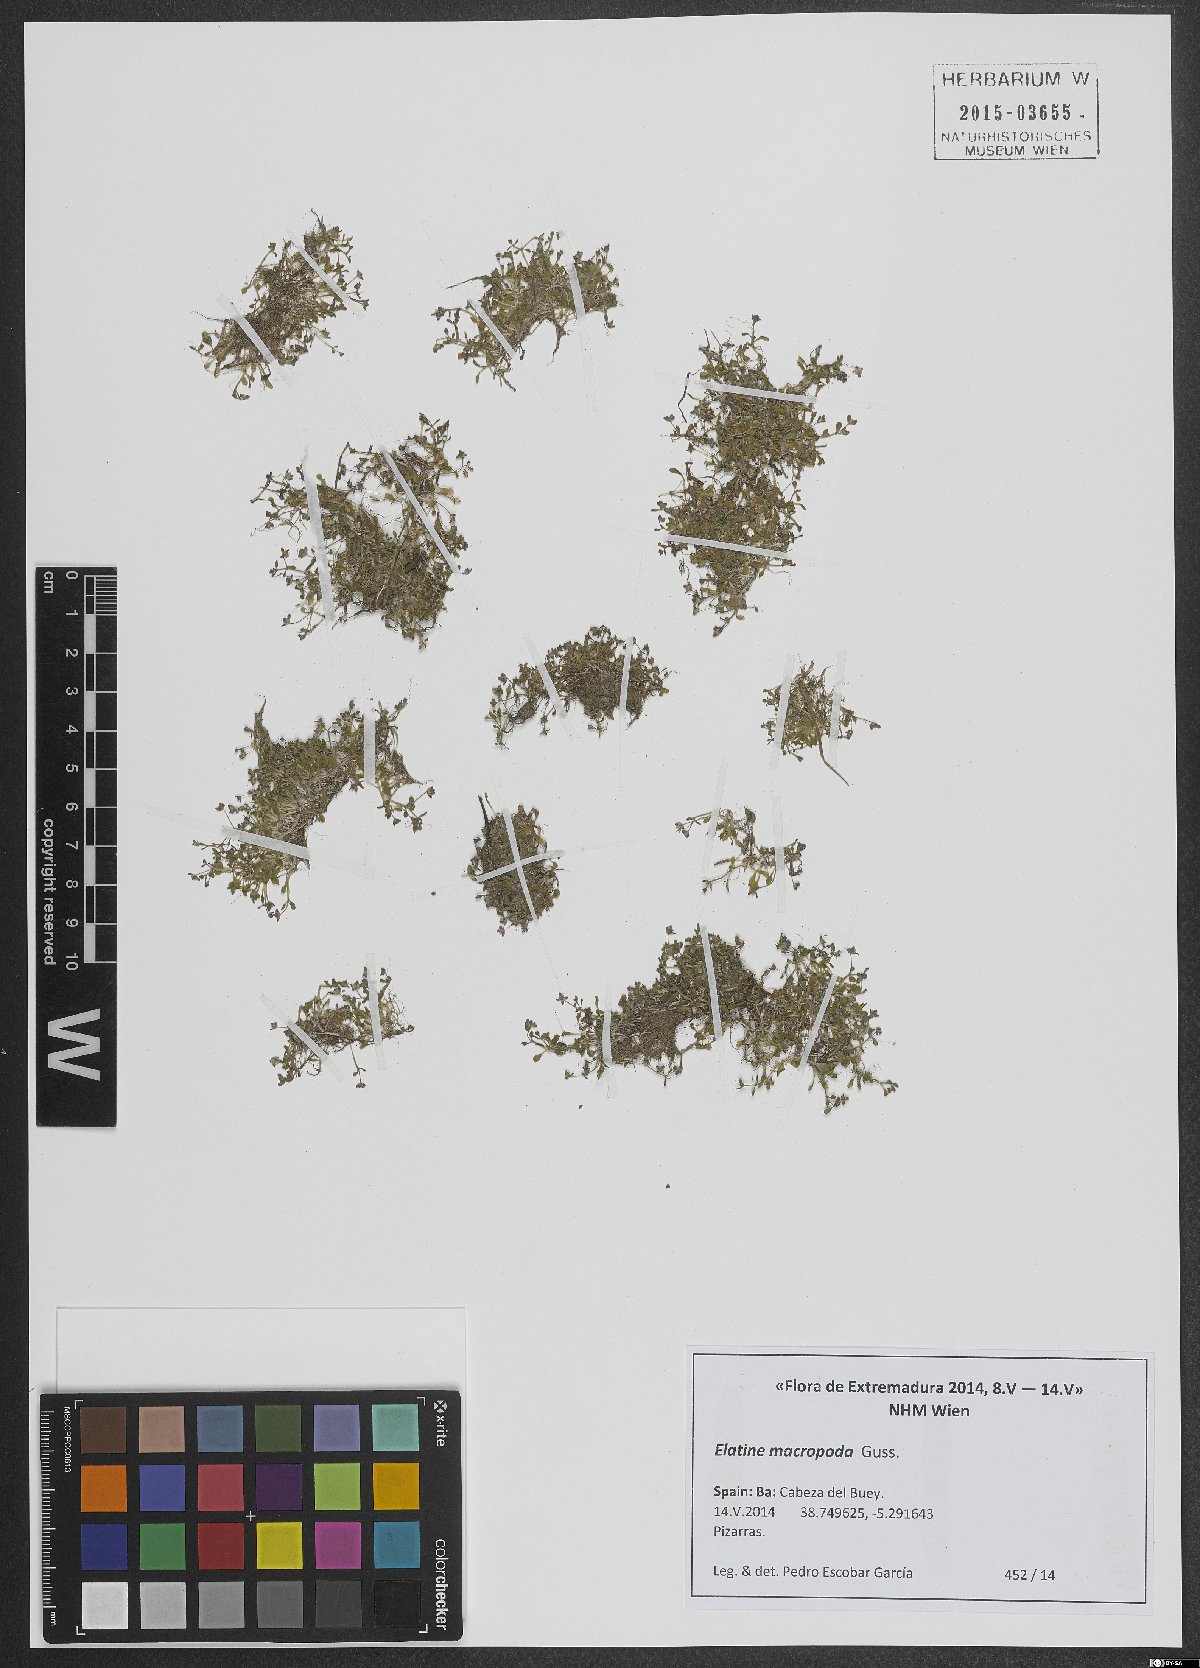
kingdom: Plantae
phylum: Tracheophyta
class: Magnoliopsida
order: Malpighiales
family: Elatinaceae
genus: Elatine
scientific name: Elatine macropoda
